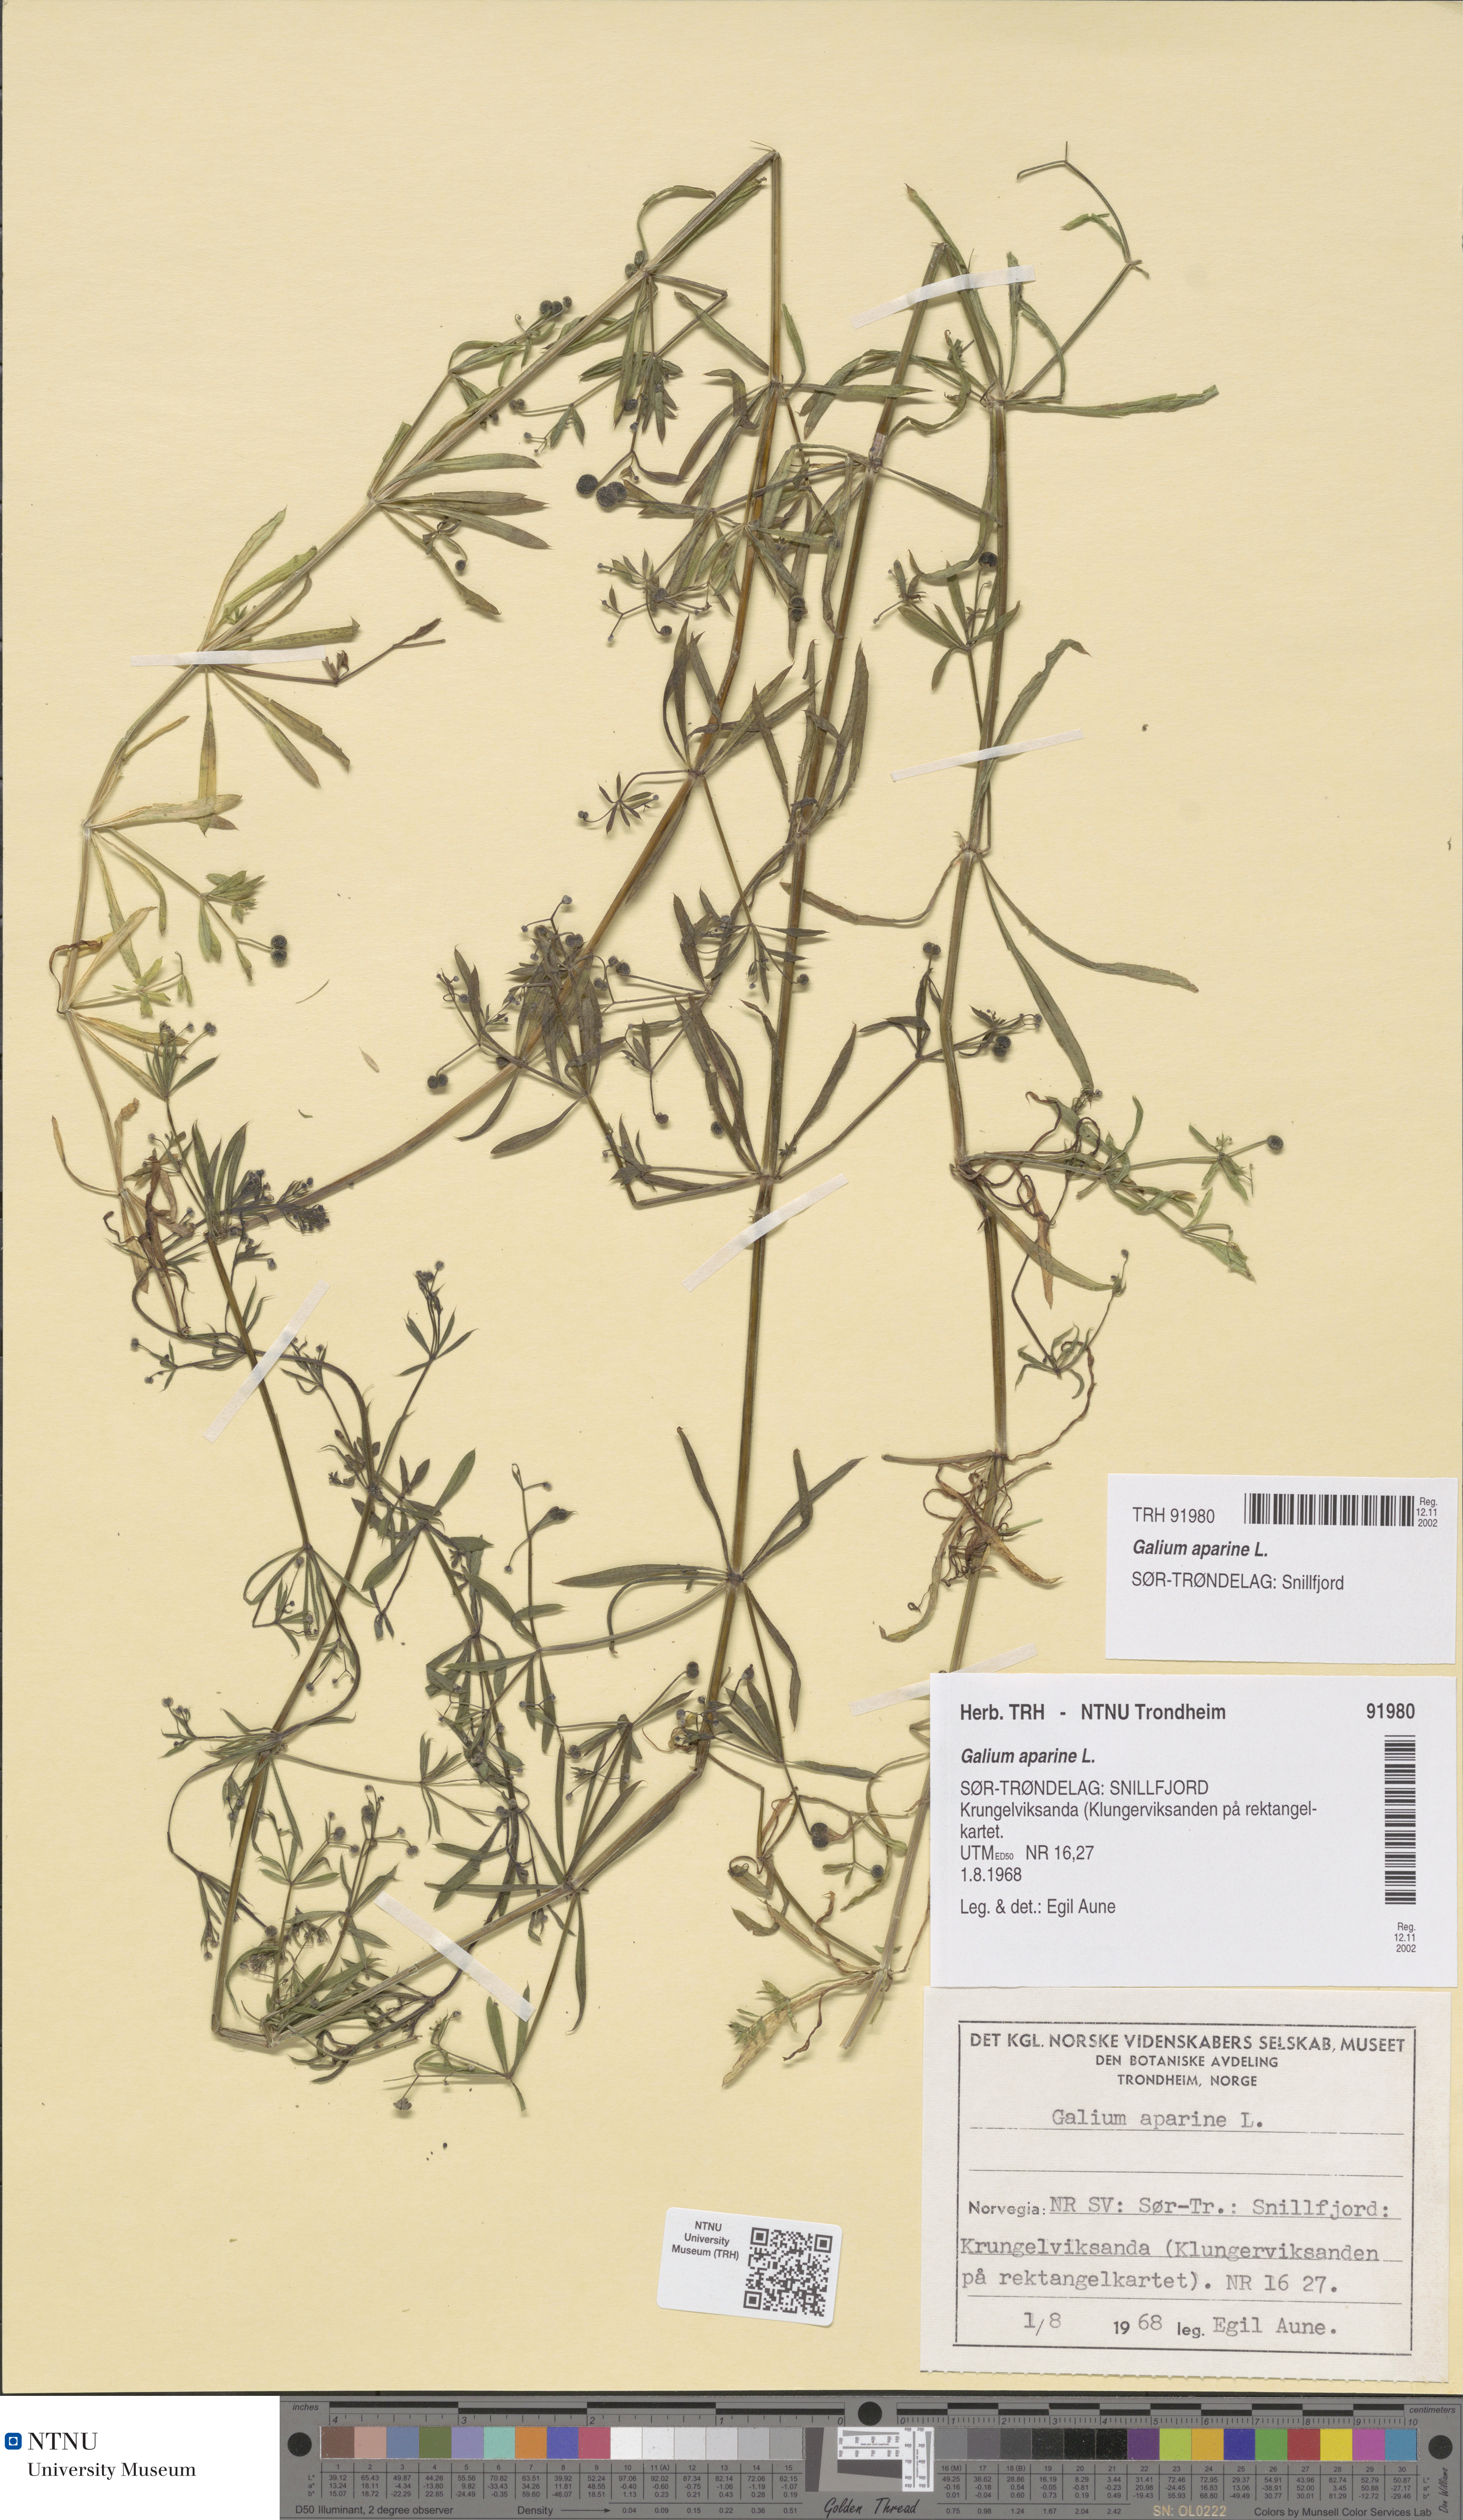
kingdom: Plantae
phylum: Tracheophyta
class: Magnoliopsida
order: Gentianales
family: Rubiaceae
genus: Galium
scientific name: Galium aparine
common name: Cleavers
